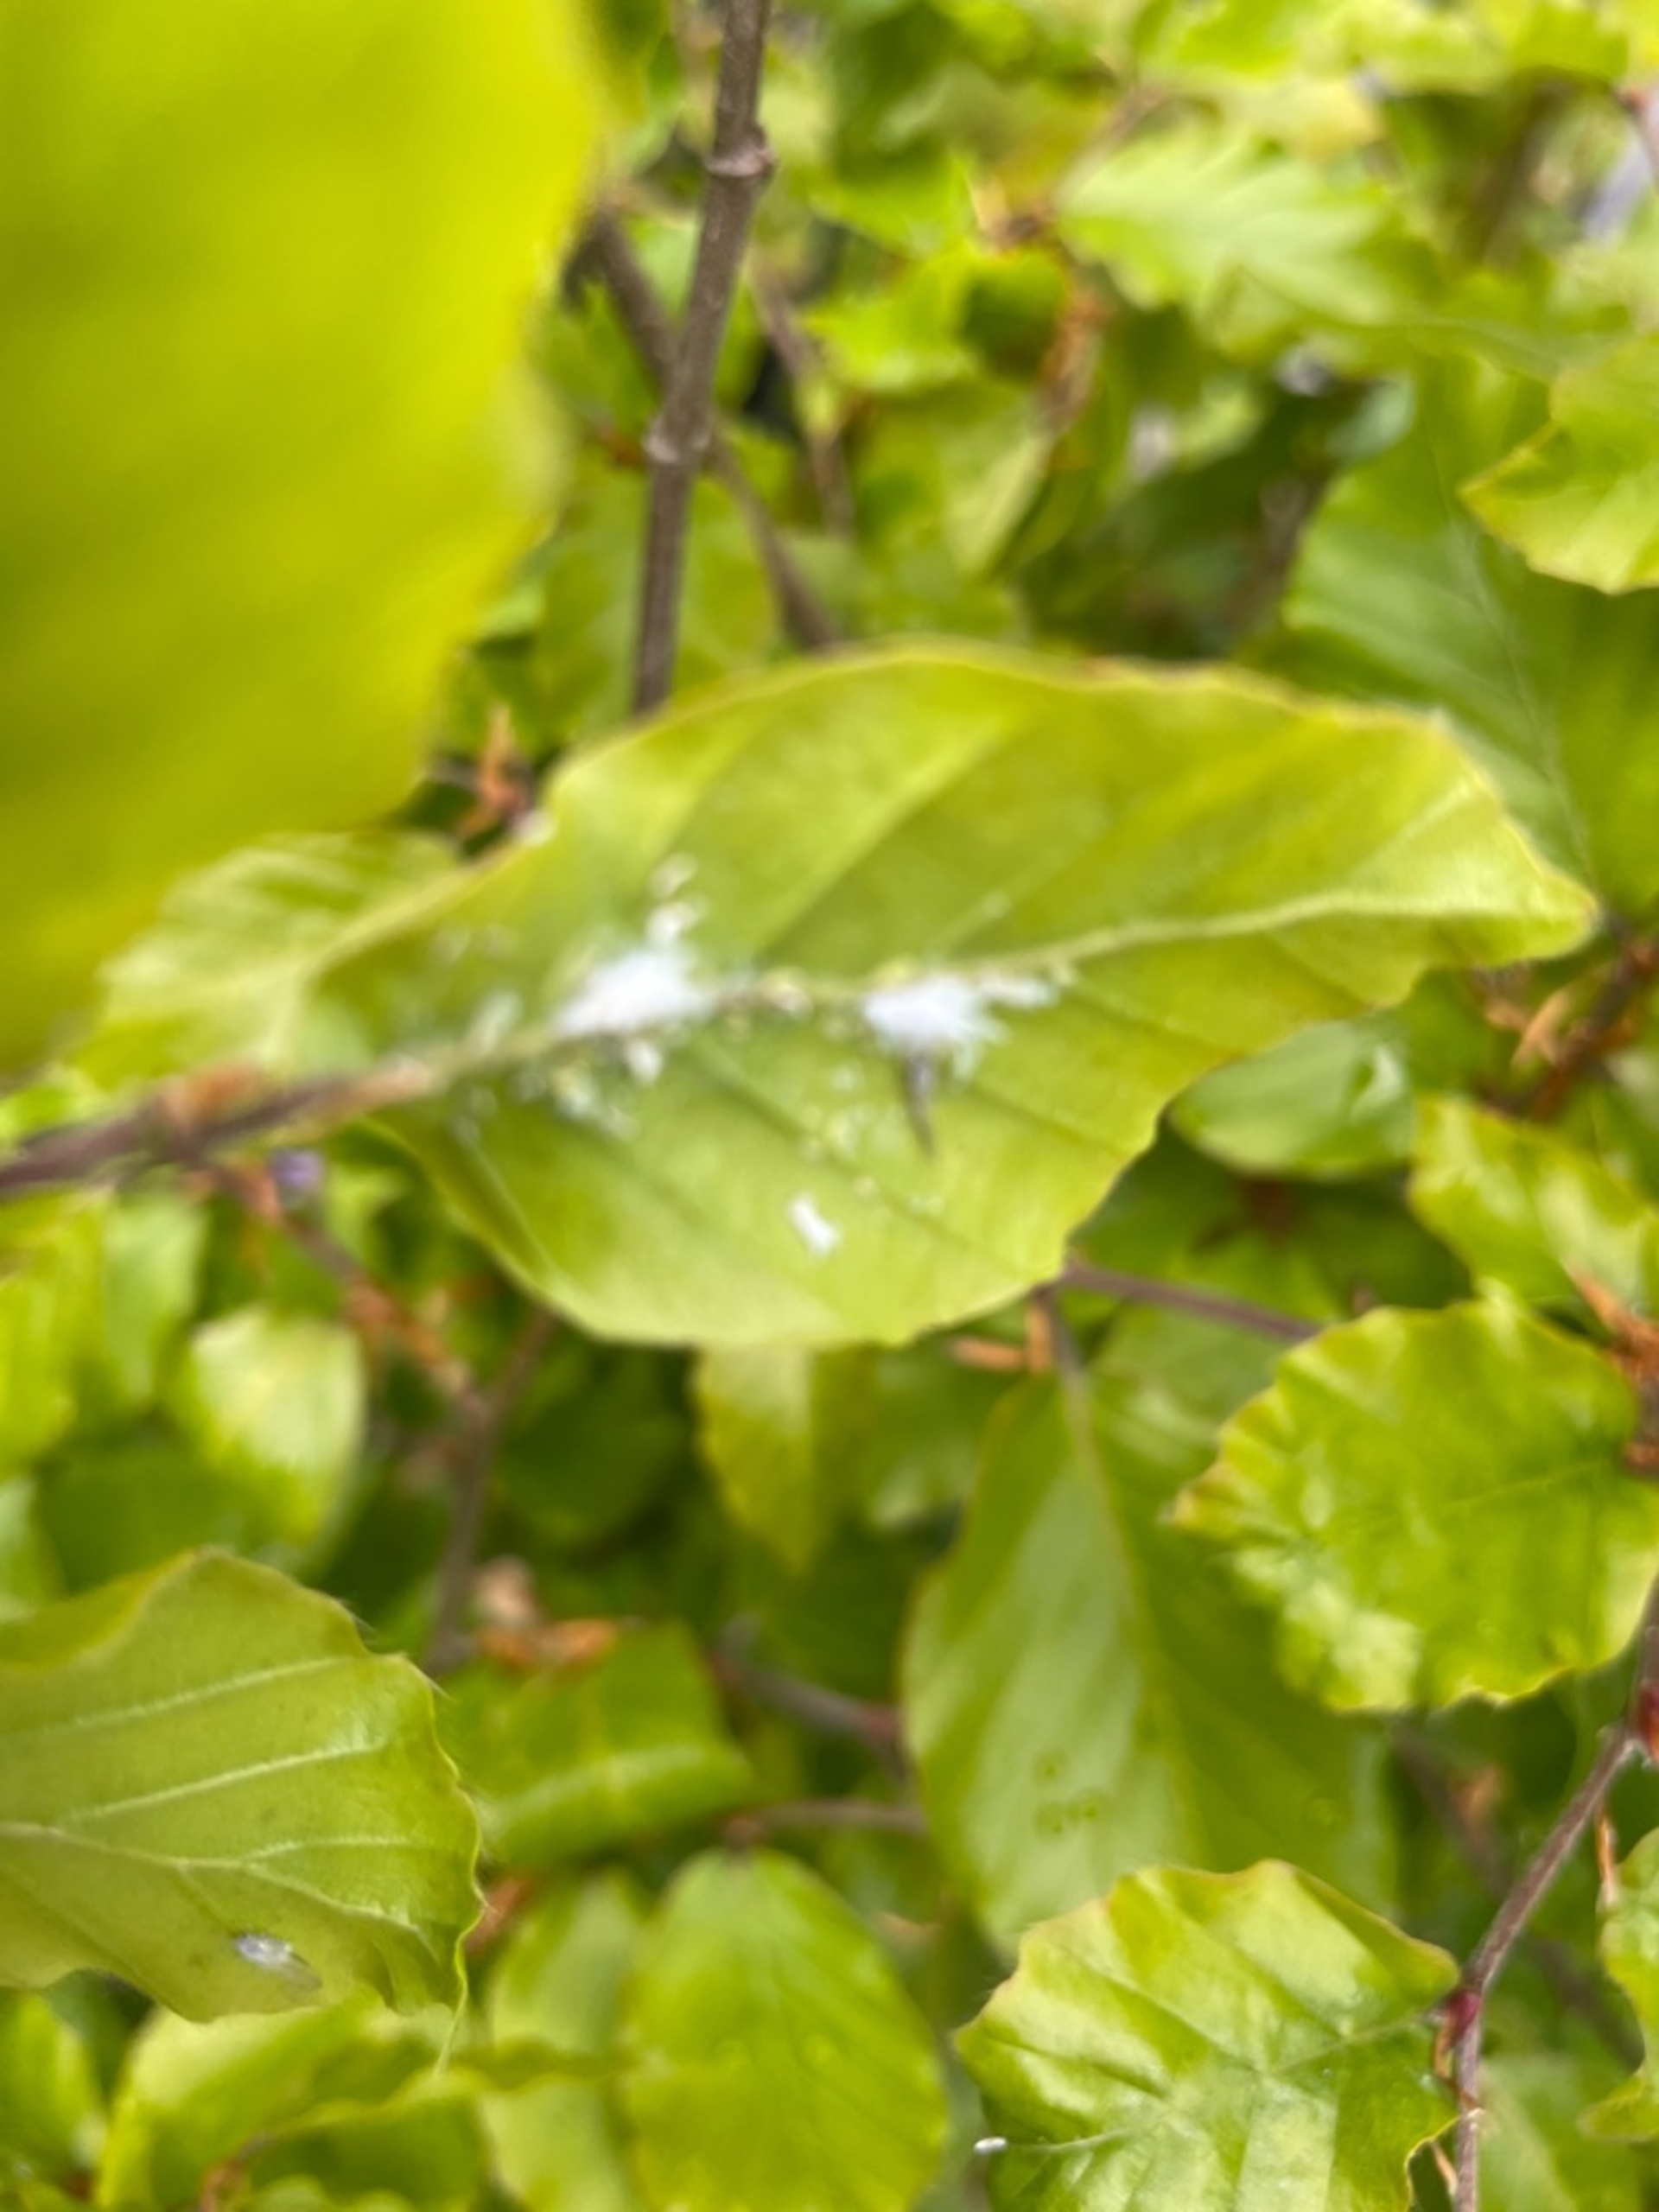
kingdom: Animalia
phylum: Arthropoda
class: Insecta
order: Hemiptera
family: Aphididae
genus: Phyllaphis
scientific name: Phyllaphis fagi
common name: Bøgebladlus
